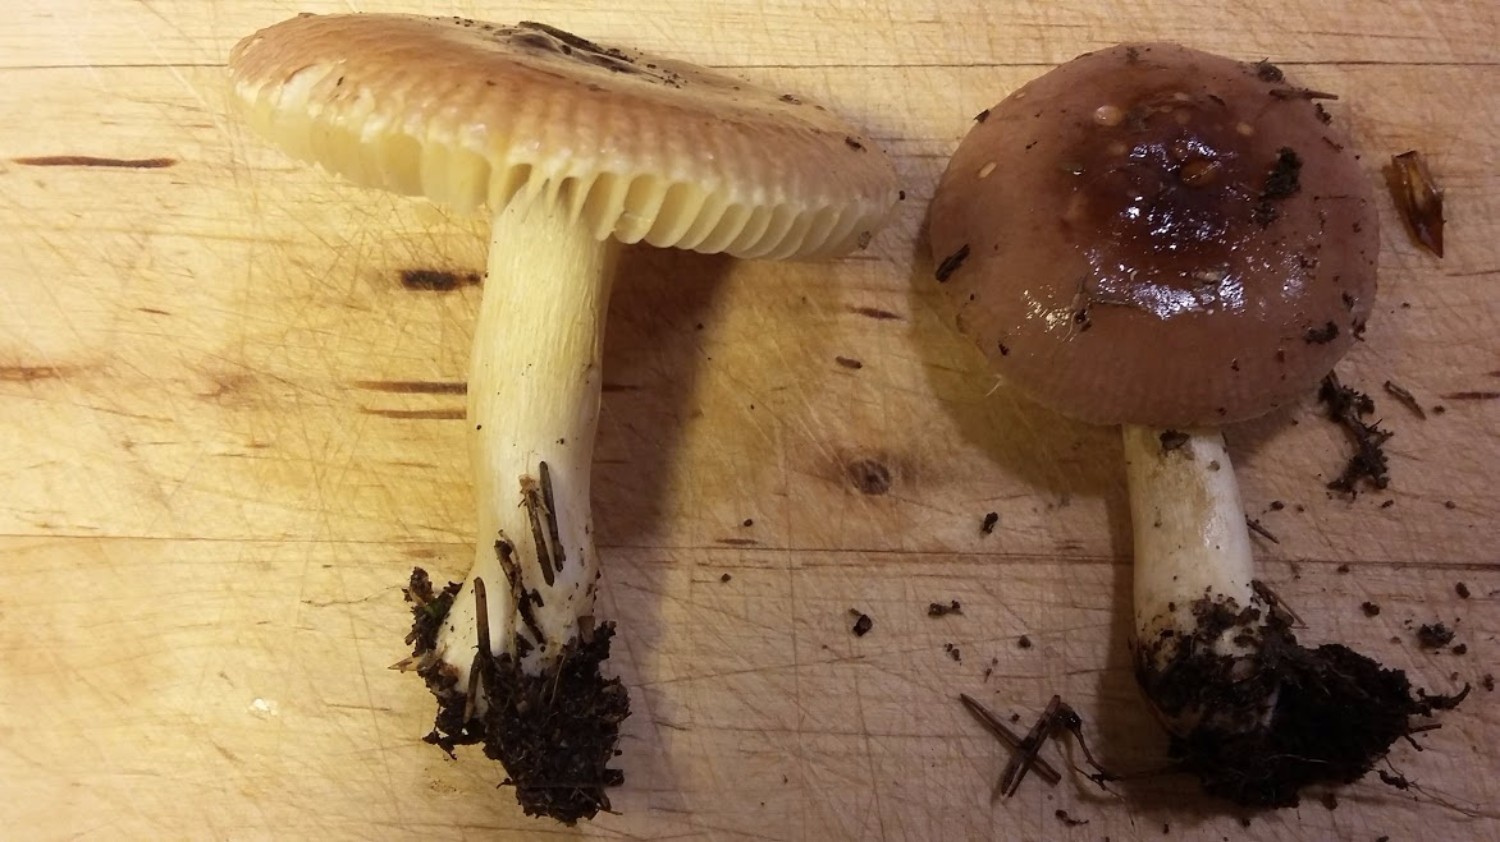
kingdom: Fungi
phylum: Basidiomycota
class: Agaricomycetes
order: Russulales
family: Russulaceae
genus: Russula
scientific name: Russula nauseosa
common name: spinkel skørhat
